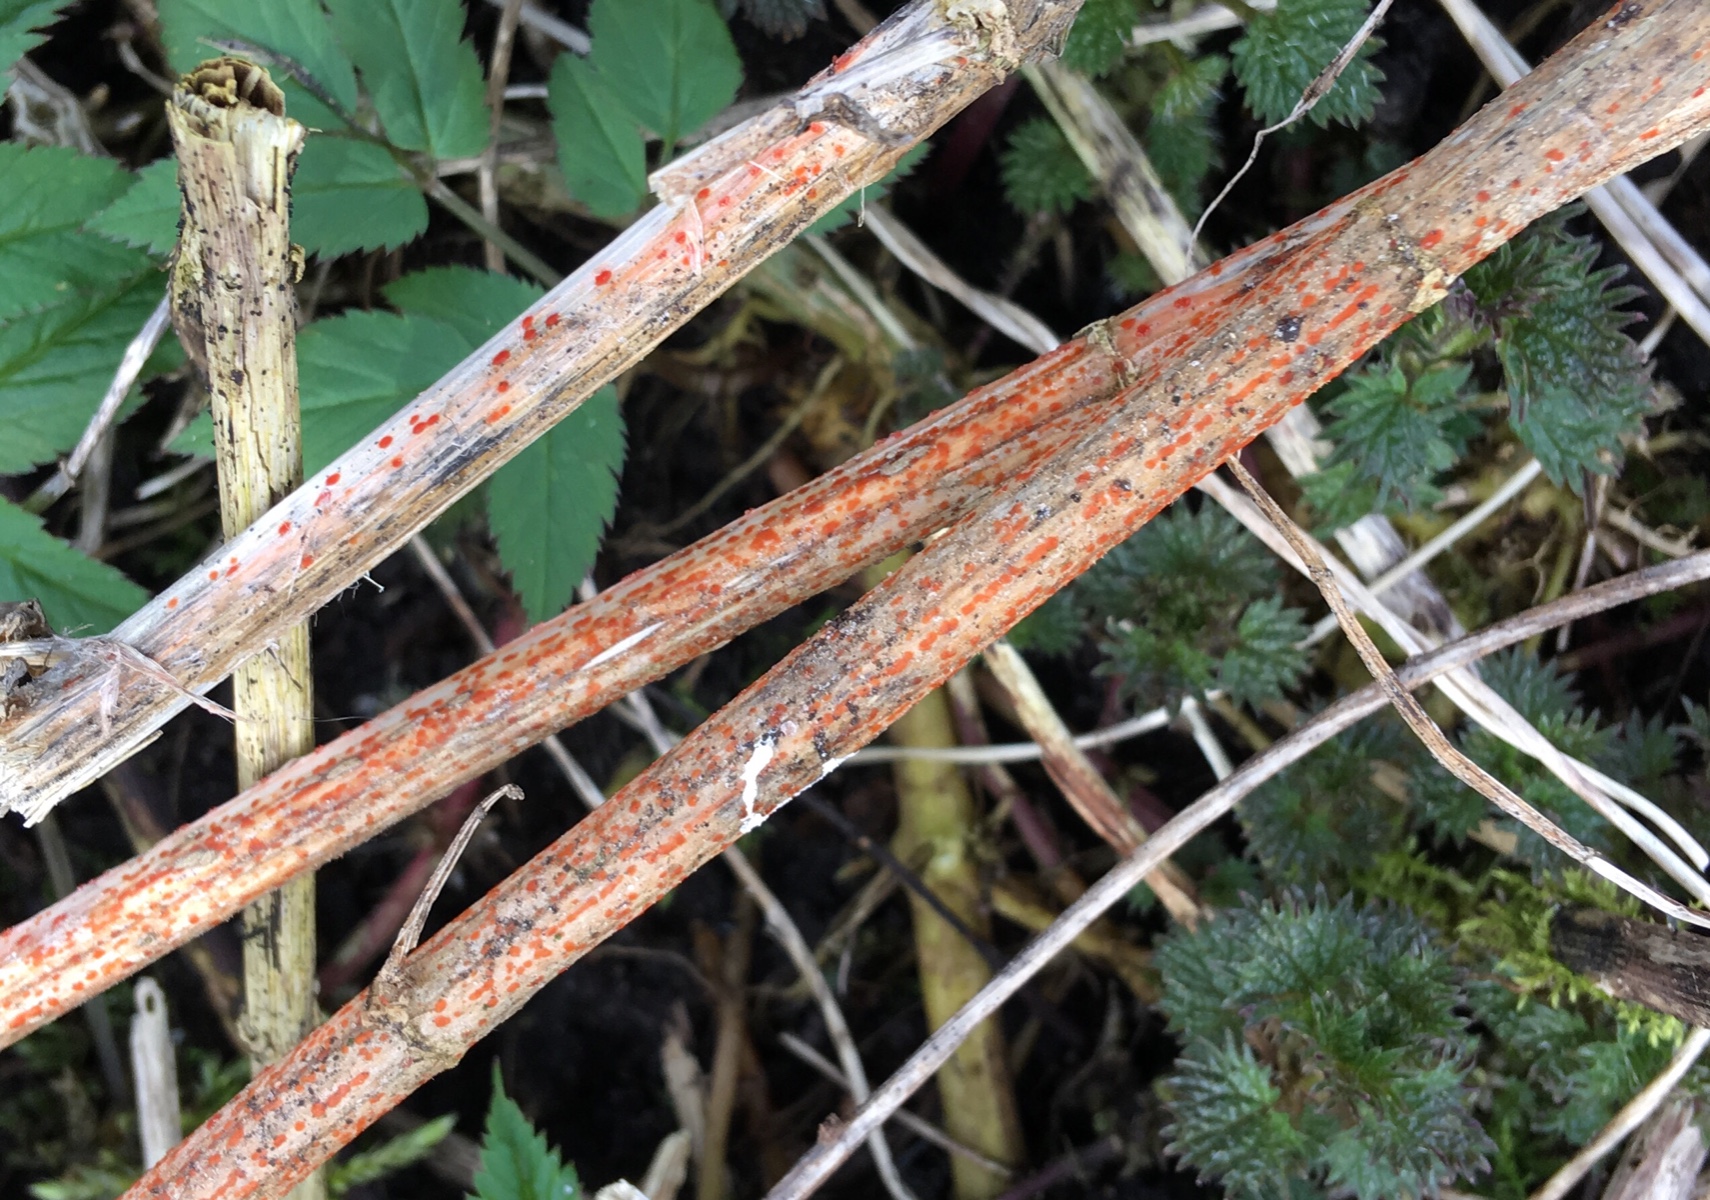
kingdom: Fungi
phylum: Ascomycota
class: Leotiomycetes
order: Helotiales
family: Calloriaceae
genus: Calloria
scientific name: Calloria urticae
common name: nælde-orangeskive
